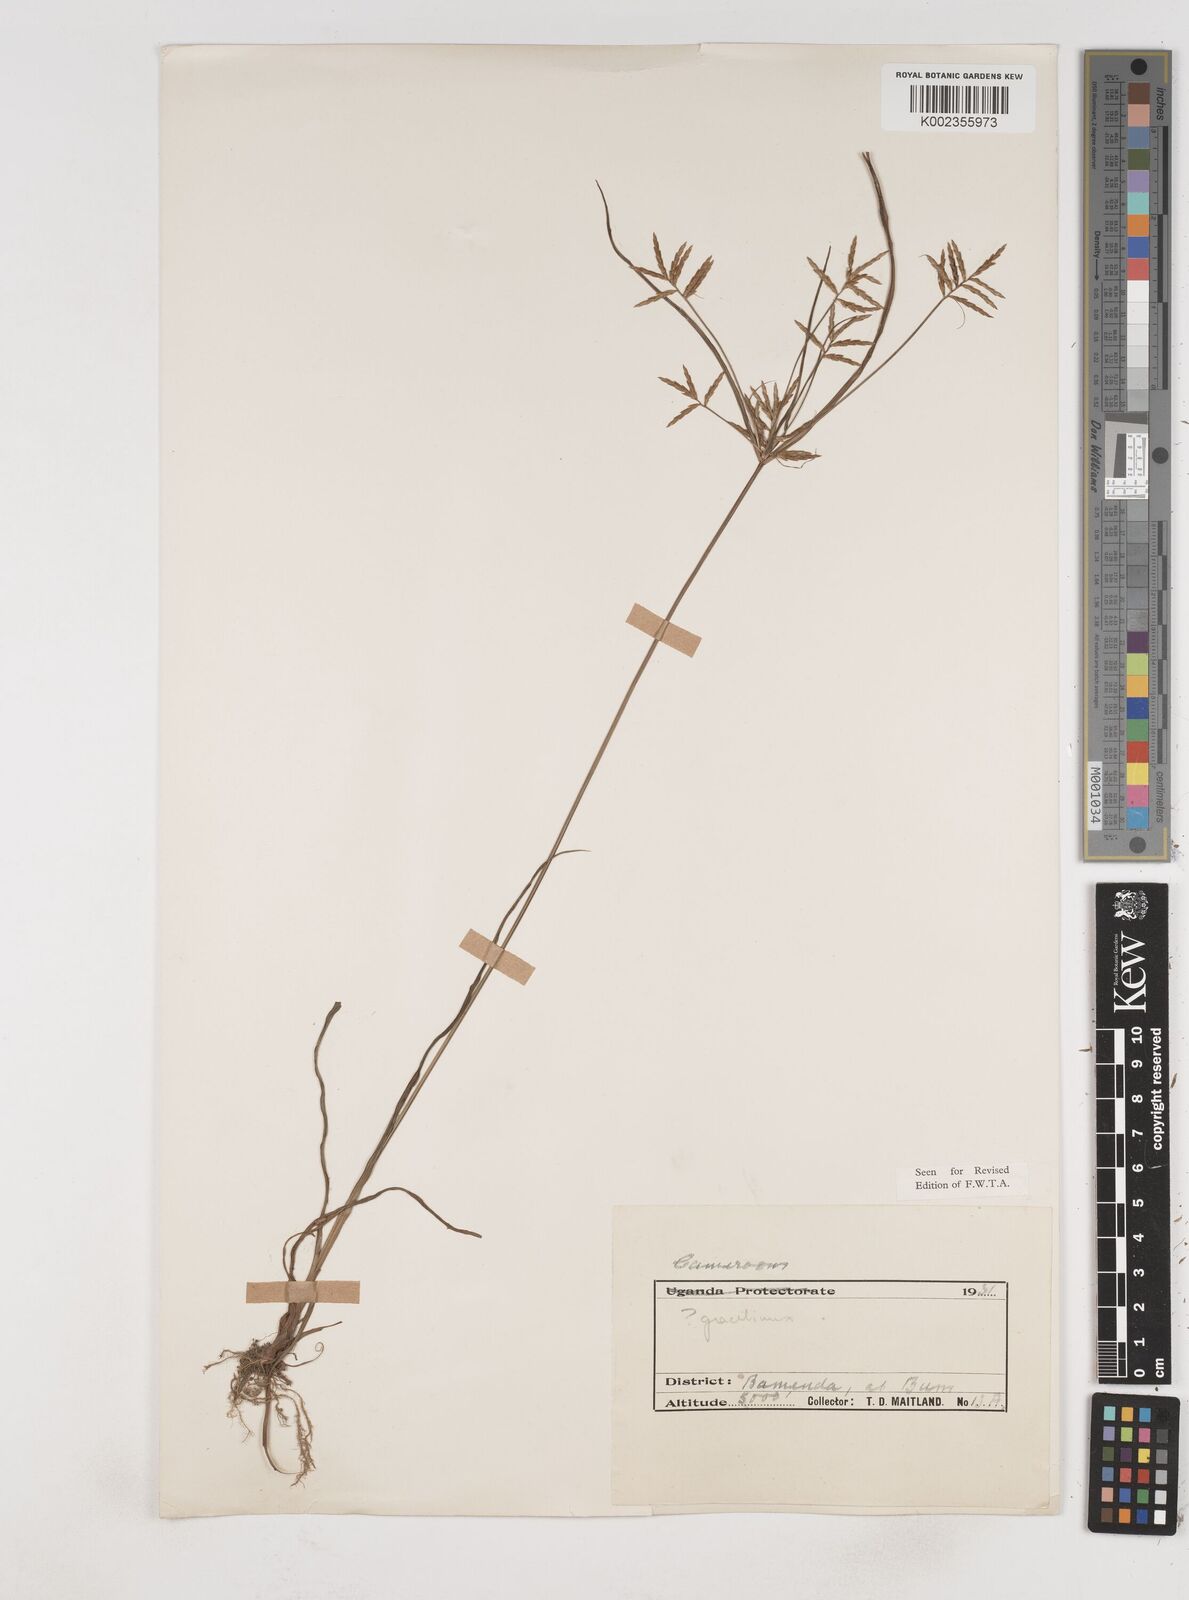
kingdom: Plantae
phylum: Tracheophyta
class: Liliopsida
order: Poales
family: Cyperaceae
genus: Cyperus
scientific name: Cyperus dilatatus
